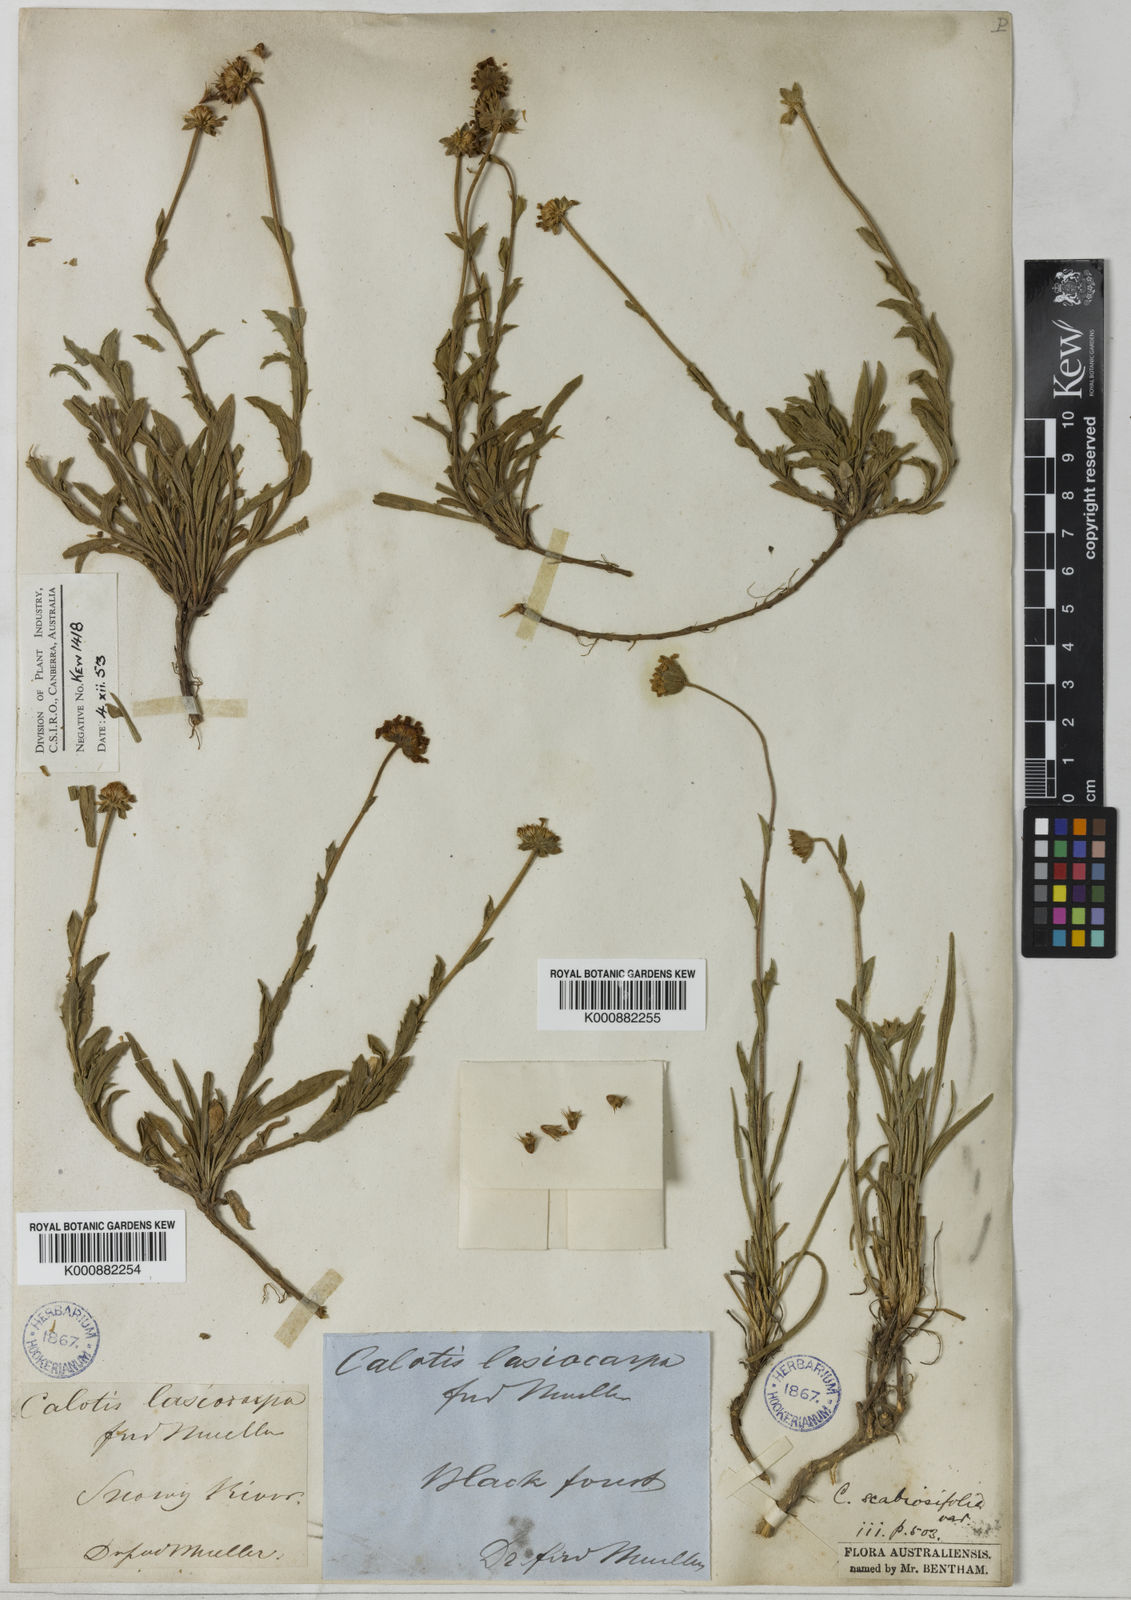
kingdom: Plantae
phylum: Tracheophyta
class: Magnoliopsida
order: Asterales
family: Asteraceae
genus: Calotis
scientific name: Calotis scabiosifolia
